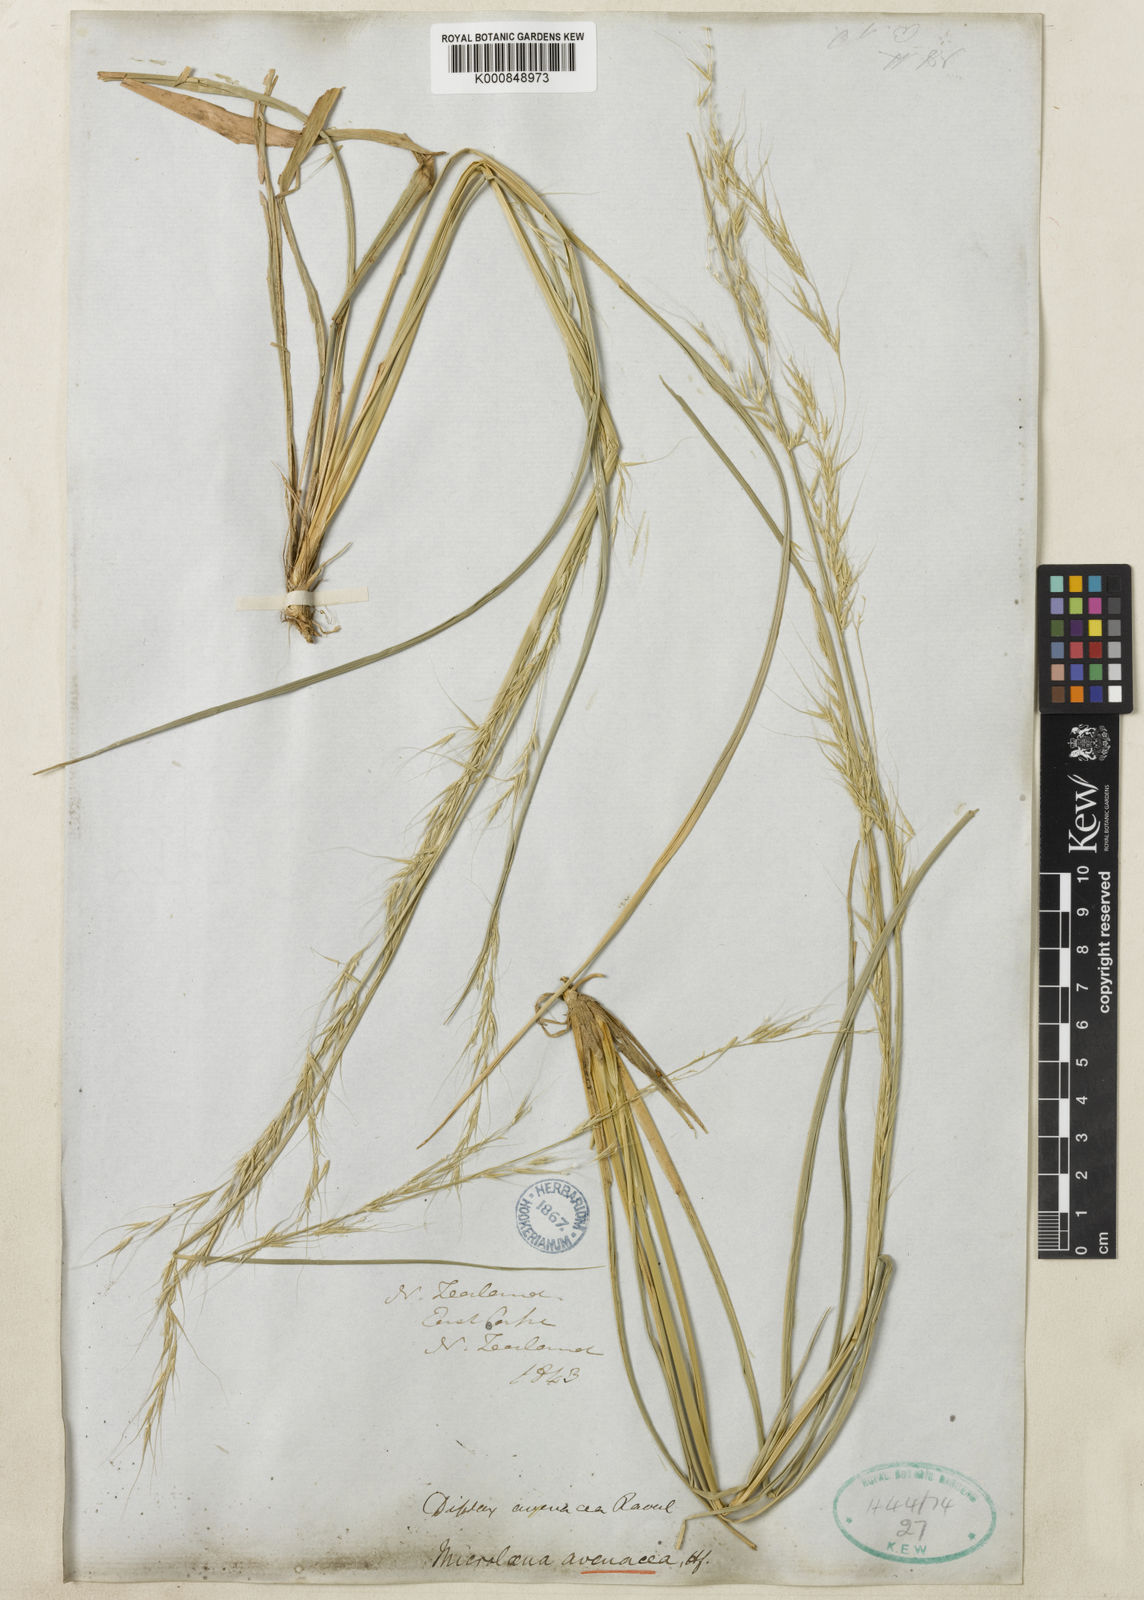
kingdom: Plantae
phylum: Tracheophyta
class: Liliopsida
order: Poales
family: Poaceae
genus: Ehrharta
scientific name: Ehrharta diplax
